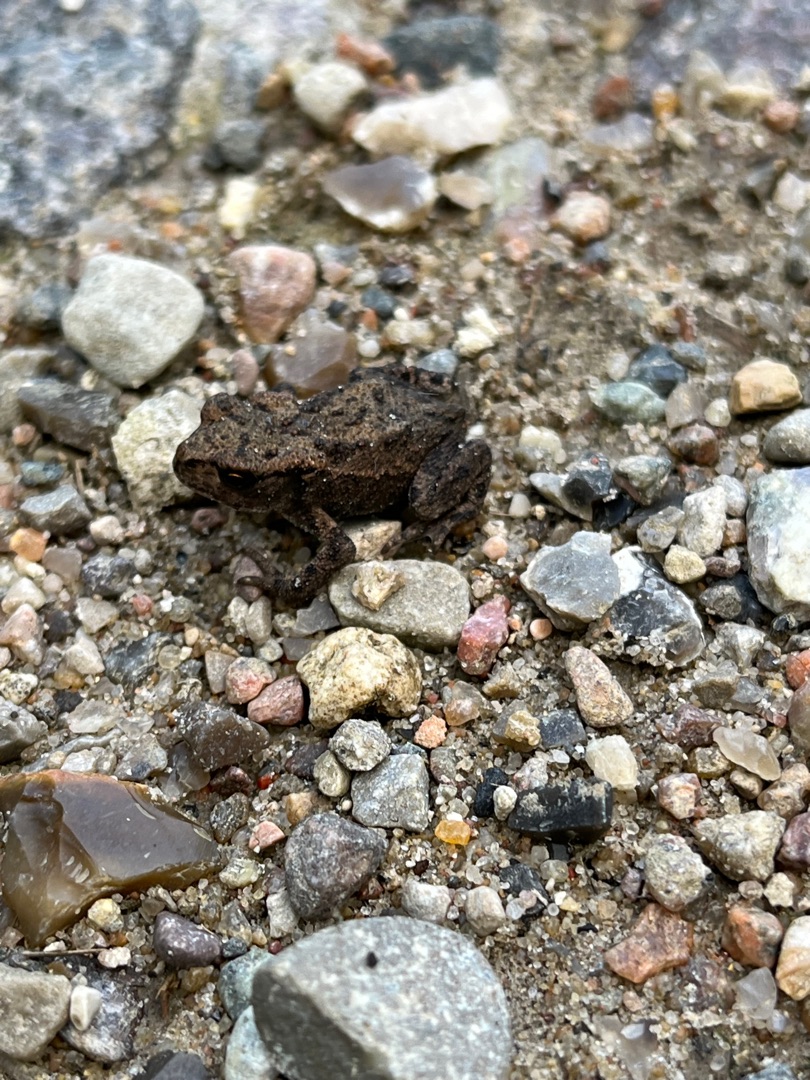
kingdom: Animalia
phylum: Chordata
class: Amphibia
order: Anura
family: Bufonidae
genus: Bufo
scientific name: Bufo bufo
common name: Skrubtudse
